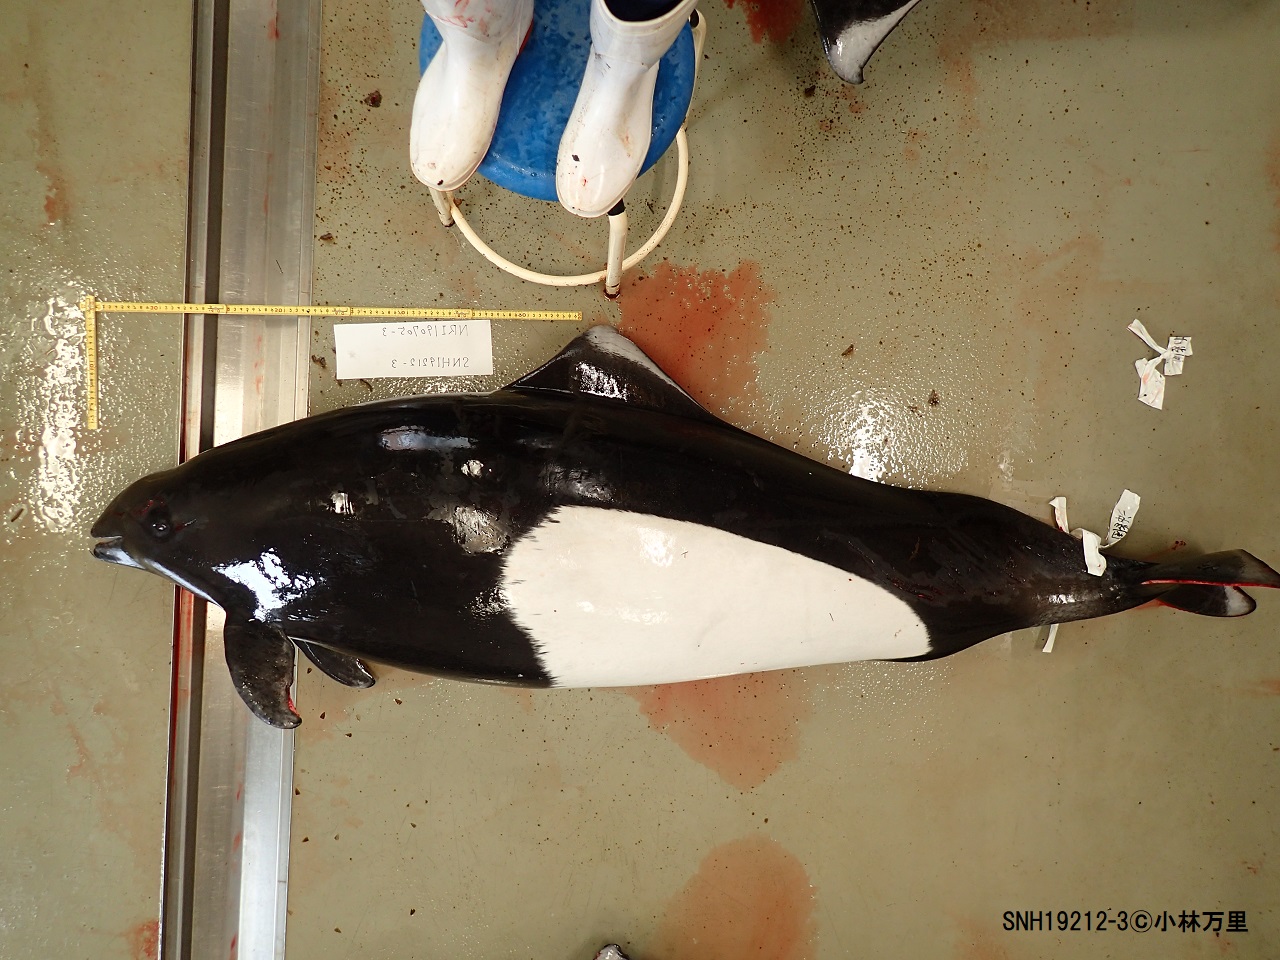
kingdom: Animalia
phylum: Chordata
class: Mammalia
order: Cetacea
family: Phocoenidae
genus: Phocoenoides
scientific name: Phocoenoides dalli
